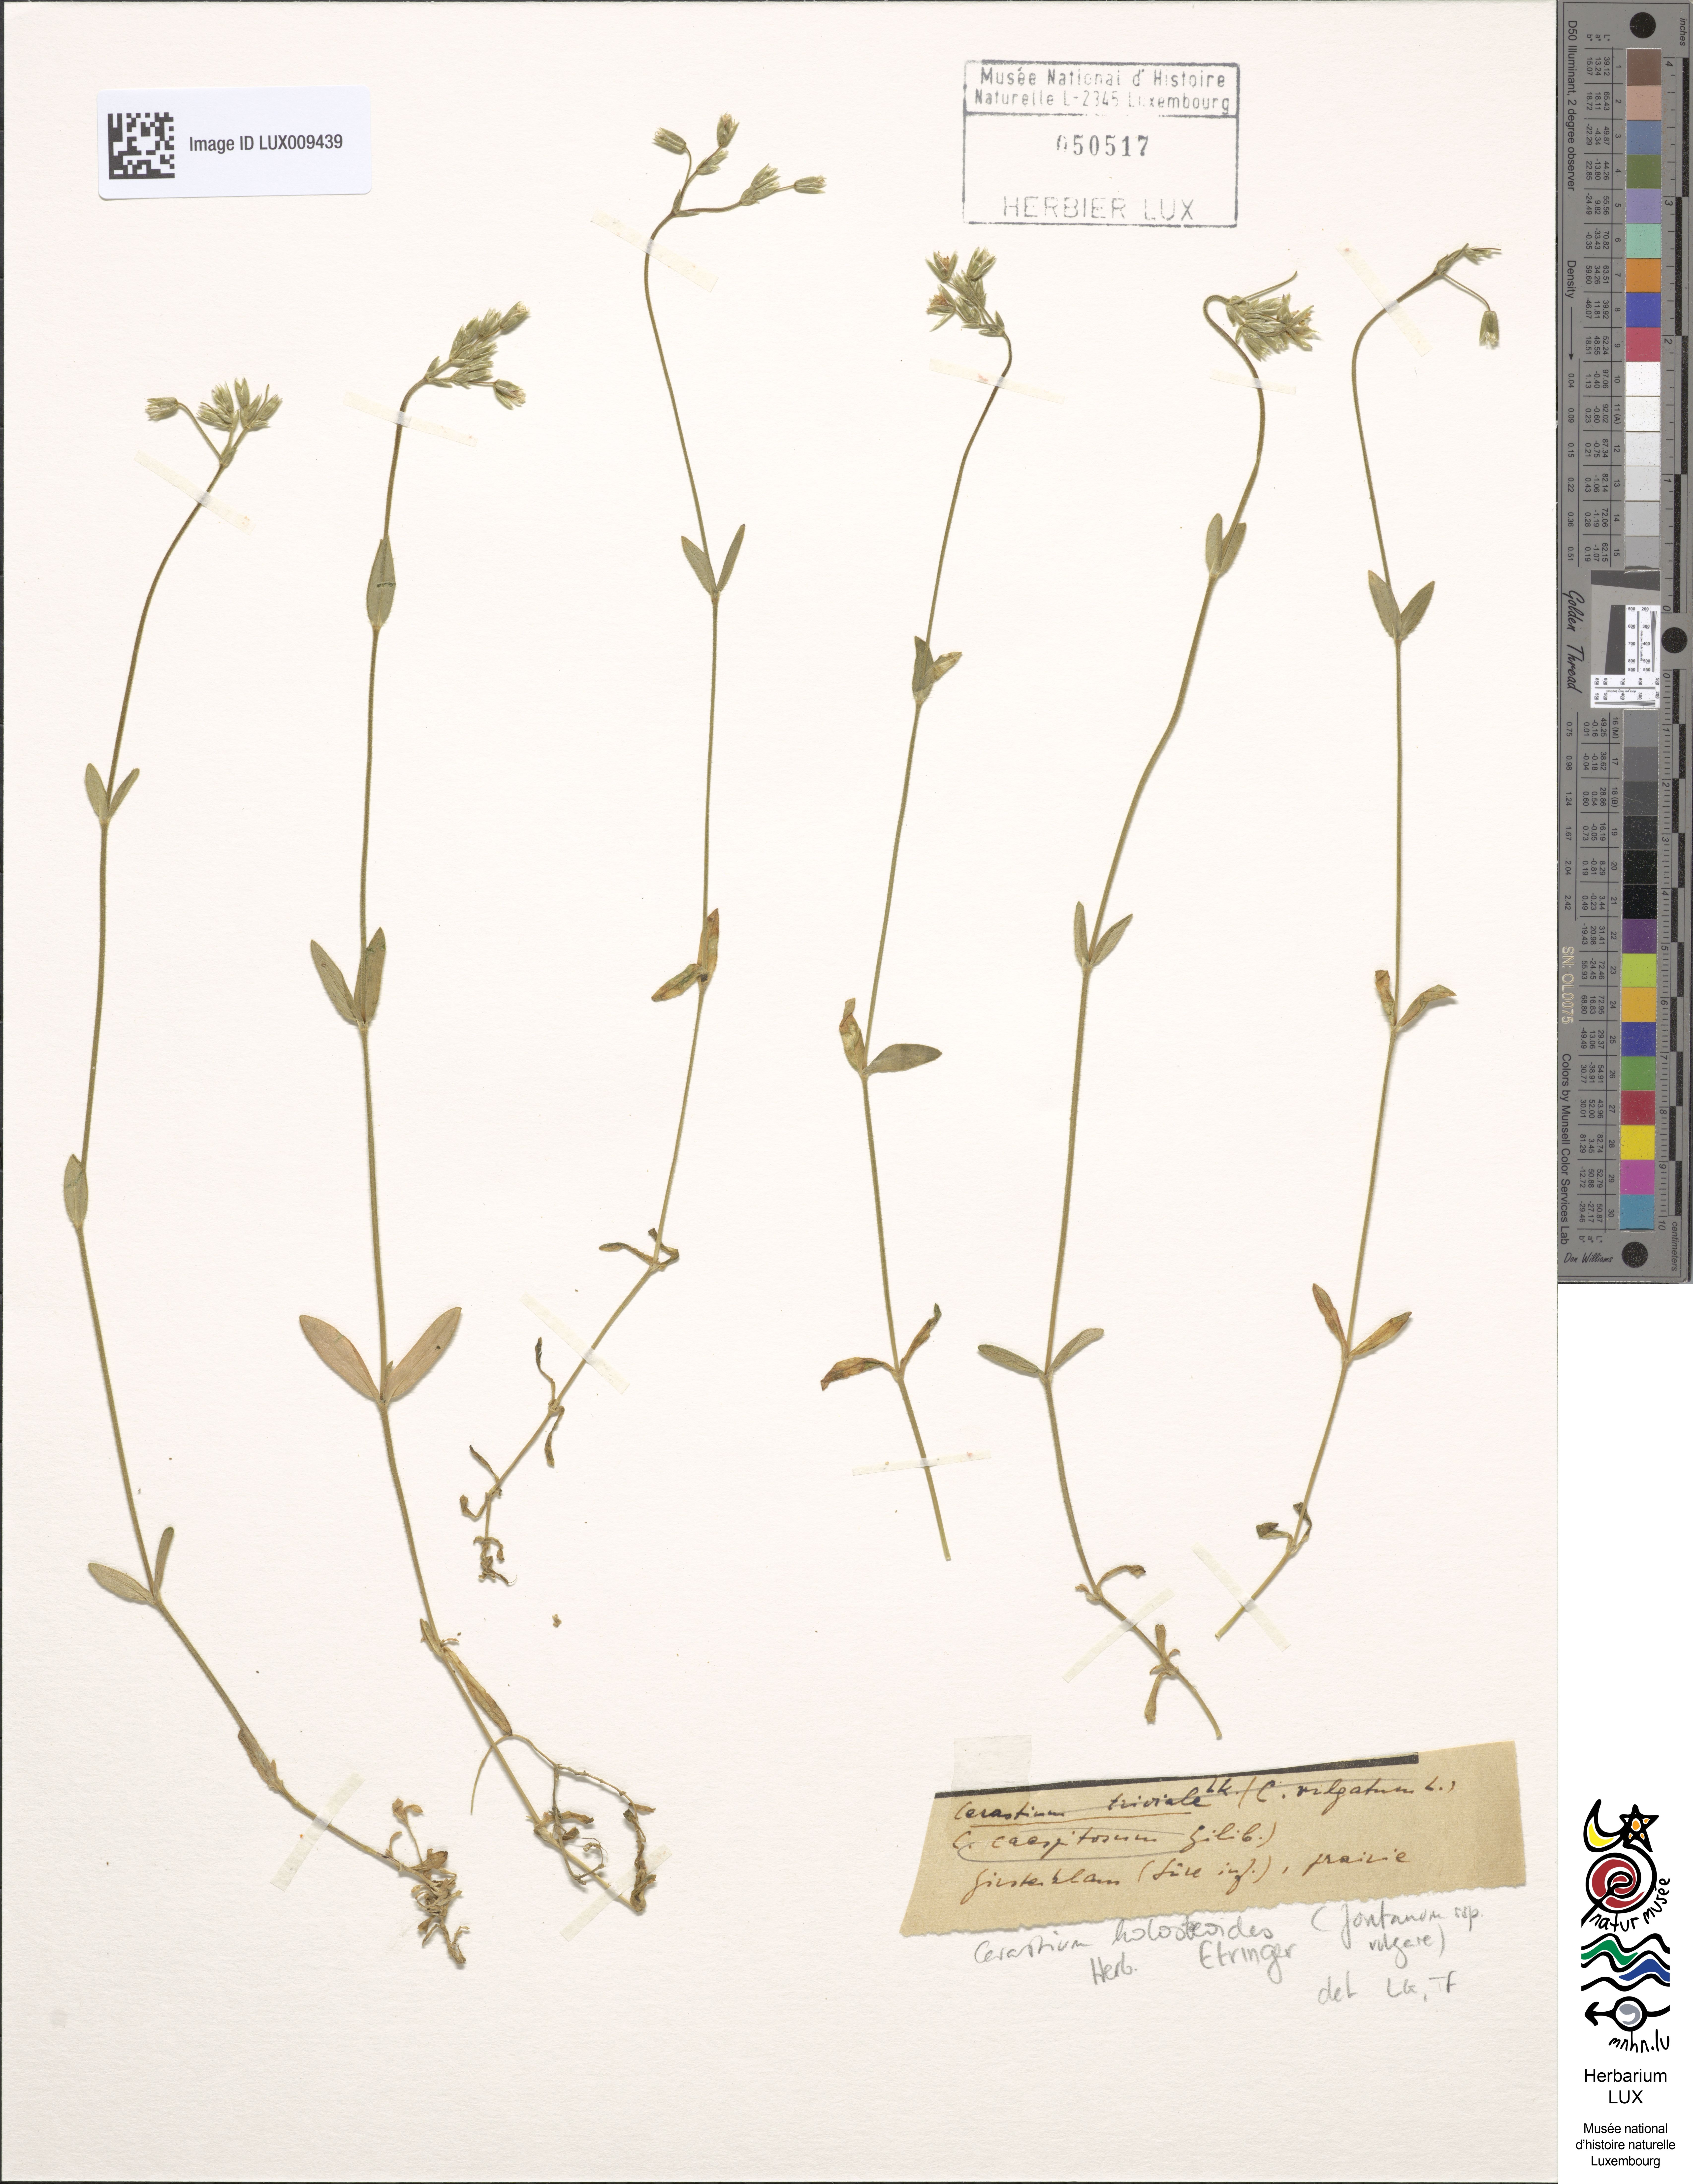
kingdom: Plantae
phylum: Tracheophyta
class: Magnoliopsida
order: Caryophyllales
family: Caryophyllaceae
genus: Cerastium
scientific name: Cerastium holosteoides
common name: Big chickweed
